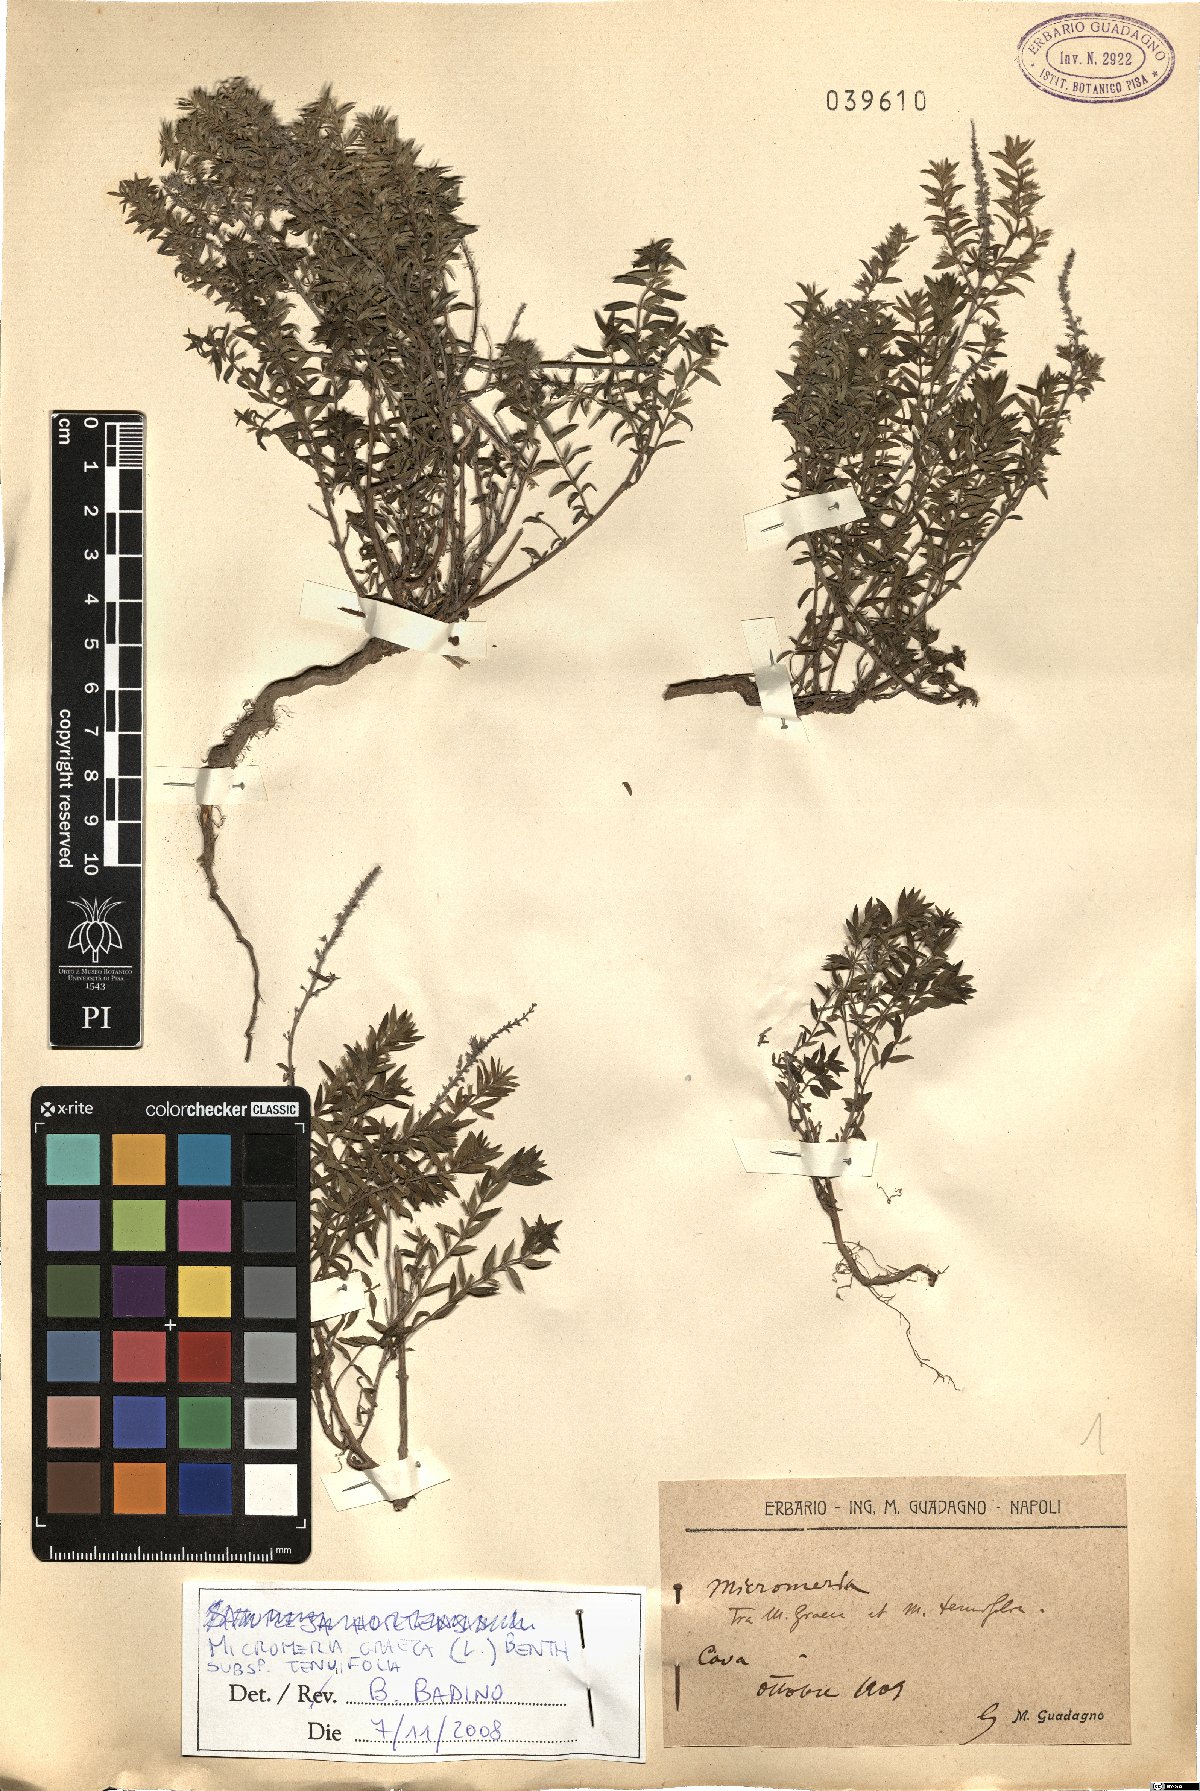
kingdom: Plantae
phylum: Tracheophyta
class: Magnoliopsida
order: Lamiales
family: Lamiaceae
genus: Micromeria
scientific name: Micromeria graeca
